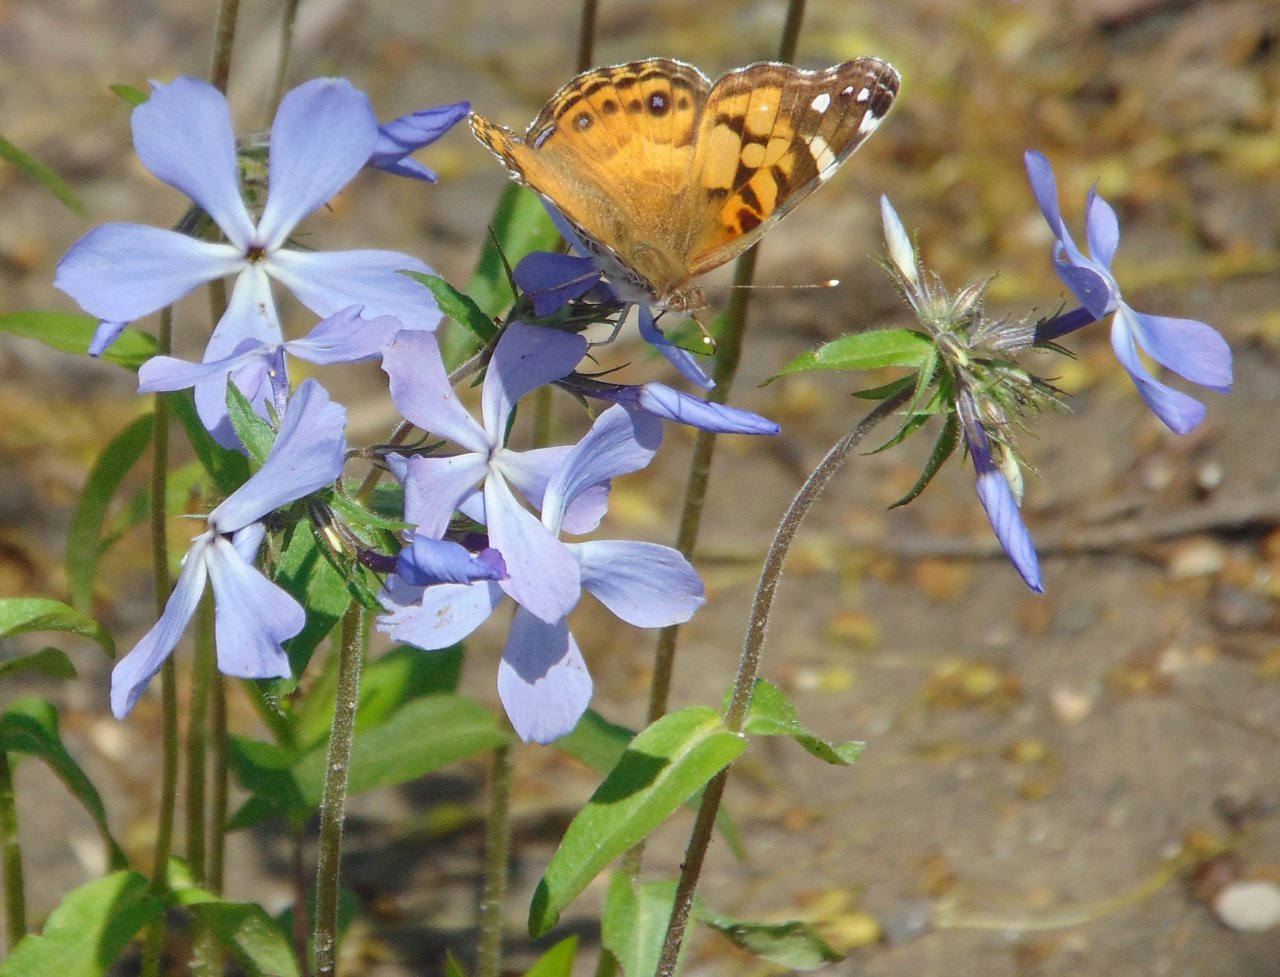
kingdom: Animalia
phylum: Arthropoda
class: Insecta
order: Lepidoptera
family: Nymphalidae
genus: Vanessa
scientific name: Vanessa virginiensis
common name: American Lady
